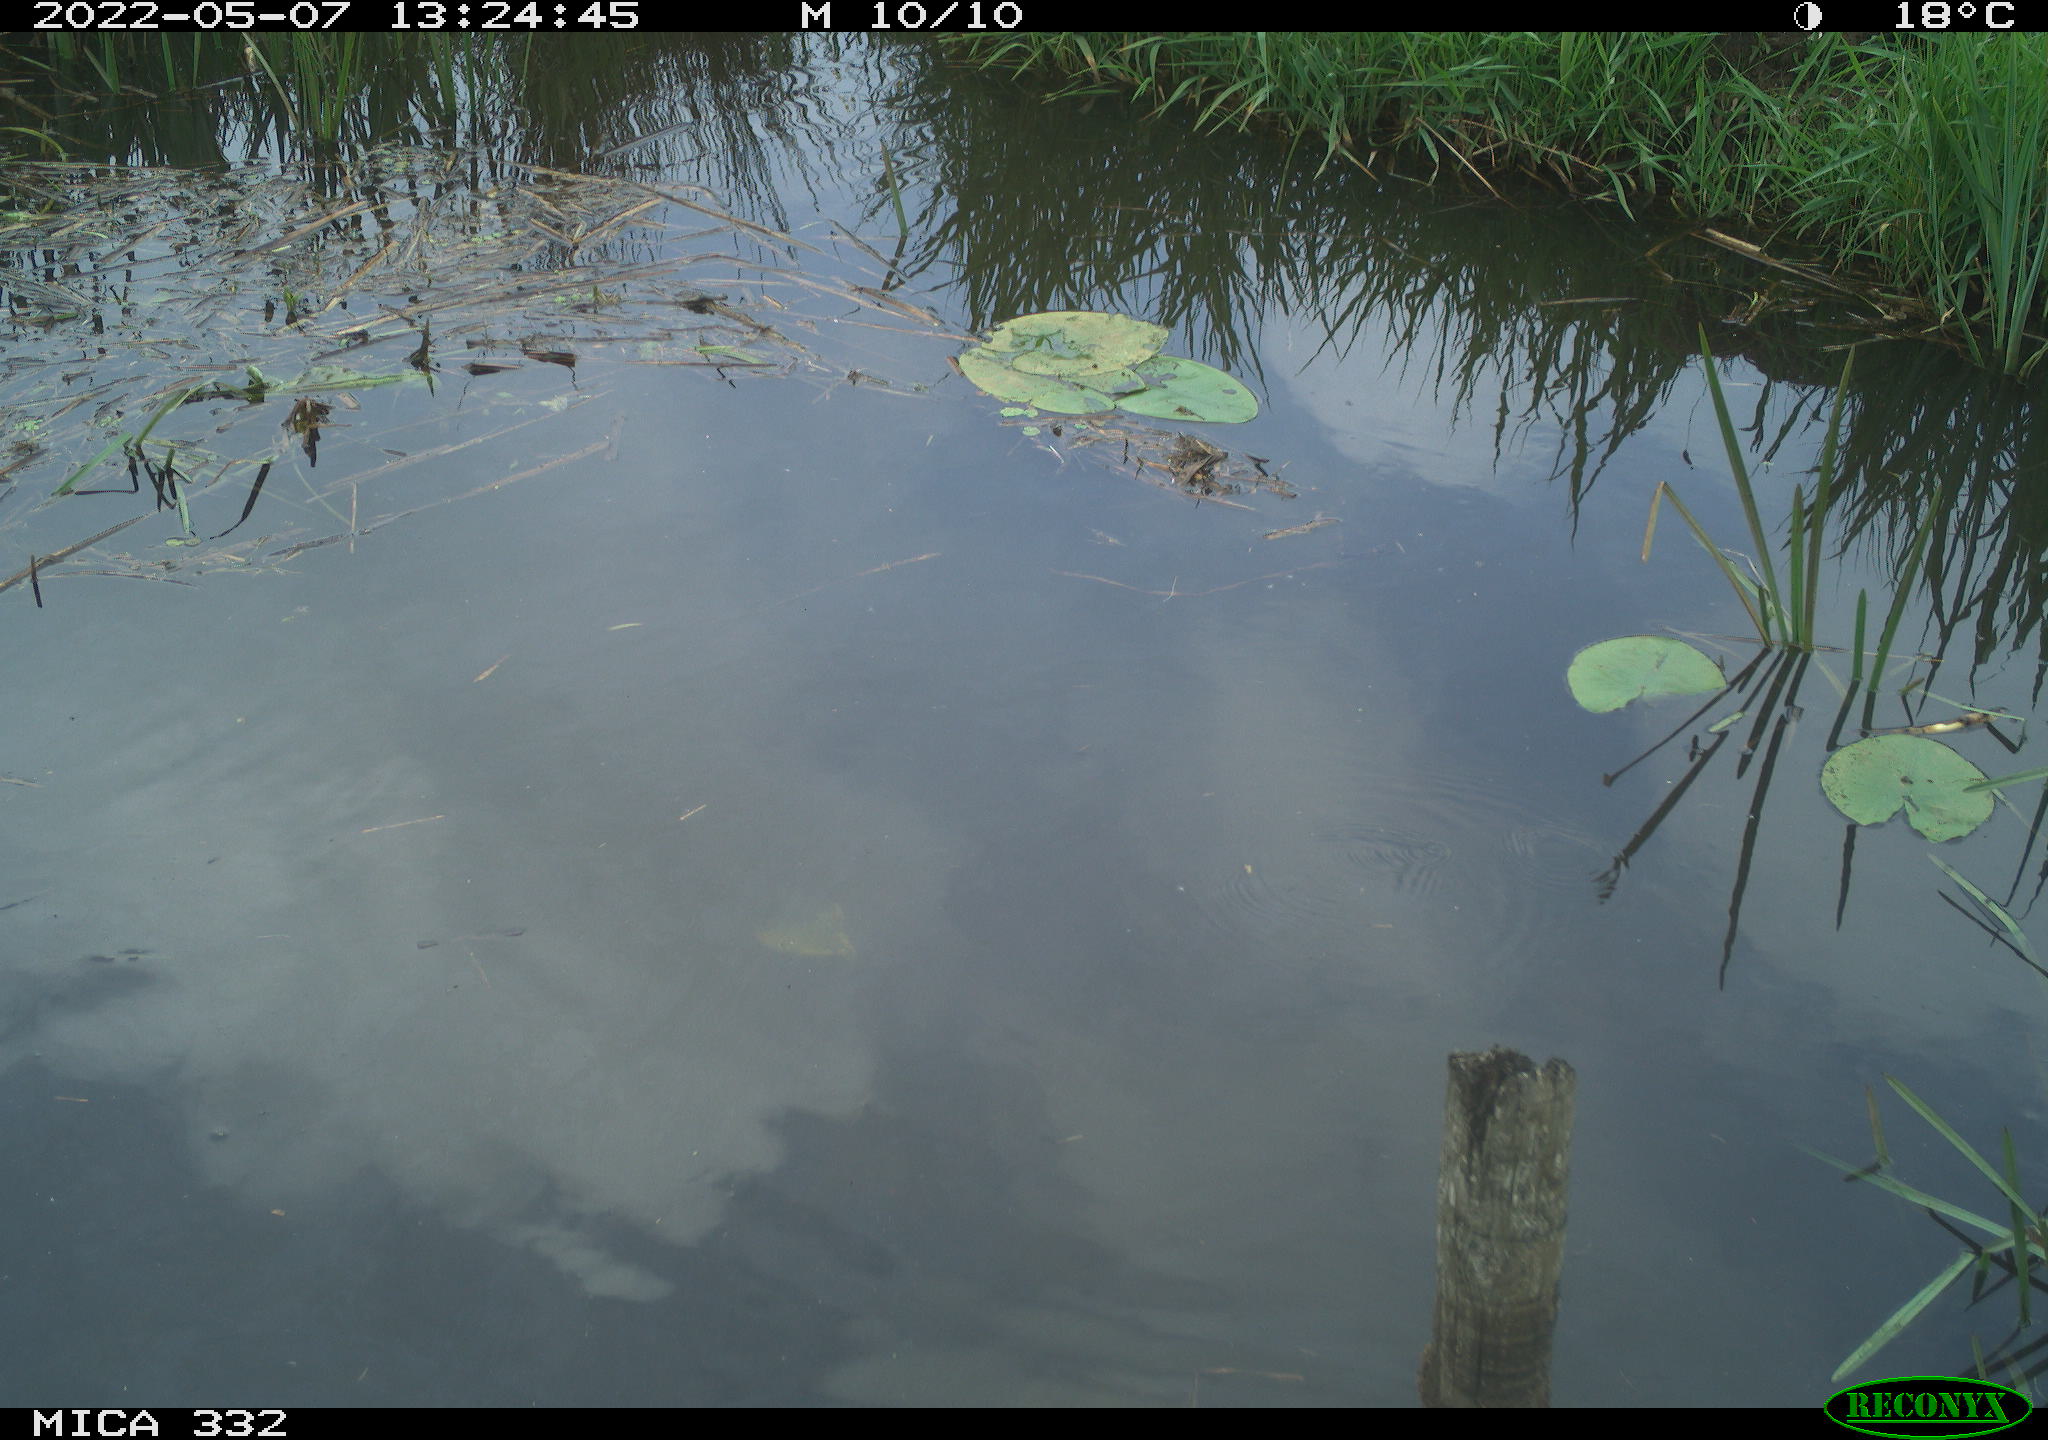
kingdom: Animalia
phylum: Chordata
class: Aves
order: Anseriformes
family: Anatidae
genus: Anas
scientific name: Anas platyrhynchos
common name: Mallard
